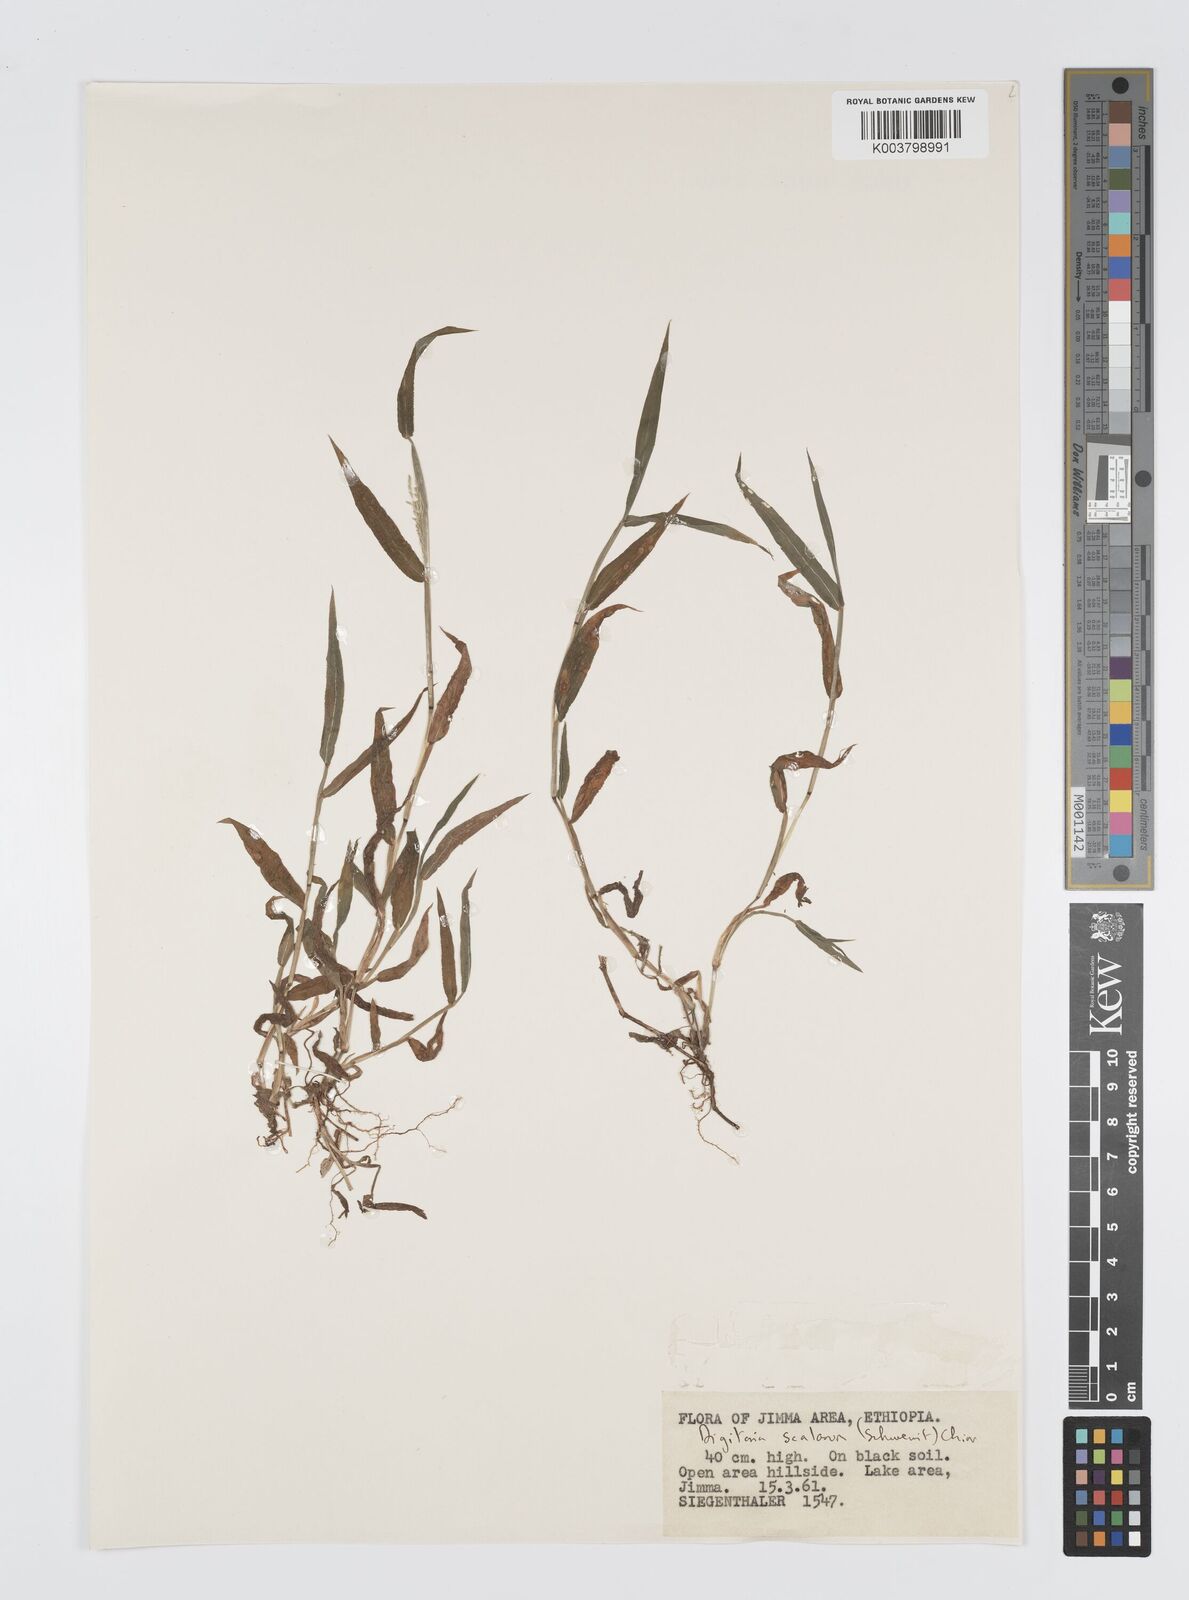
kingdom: Plantae
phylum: Tracheophyta
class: Liliopsida
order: Poales
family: Poaceae
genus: Digitaria
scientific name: Digitaria abyssinica
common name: African couchgrass
